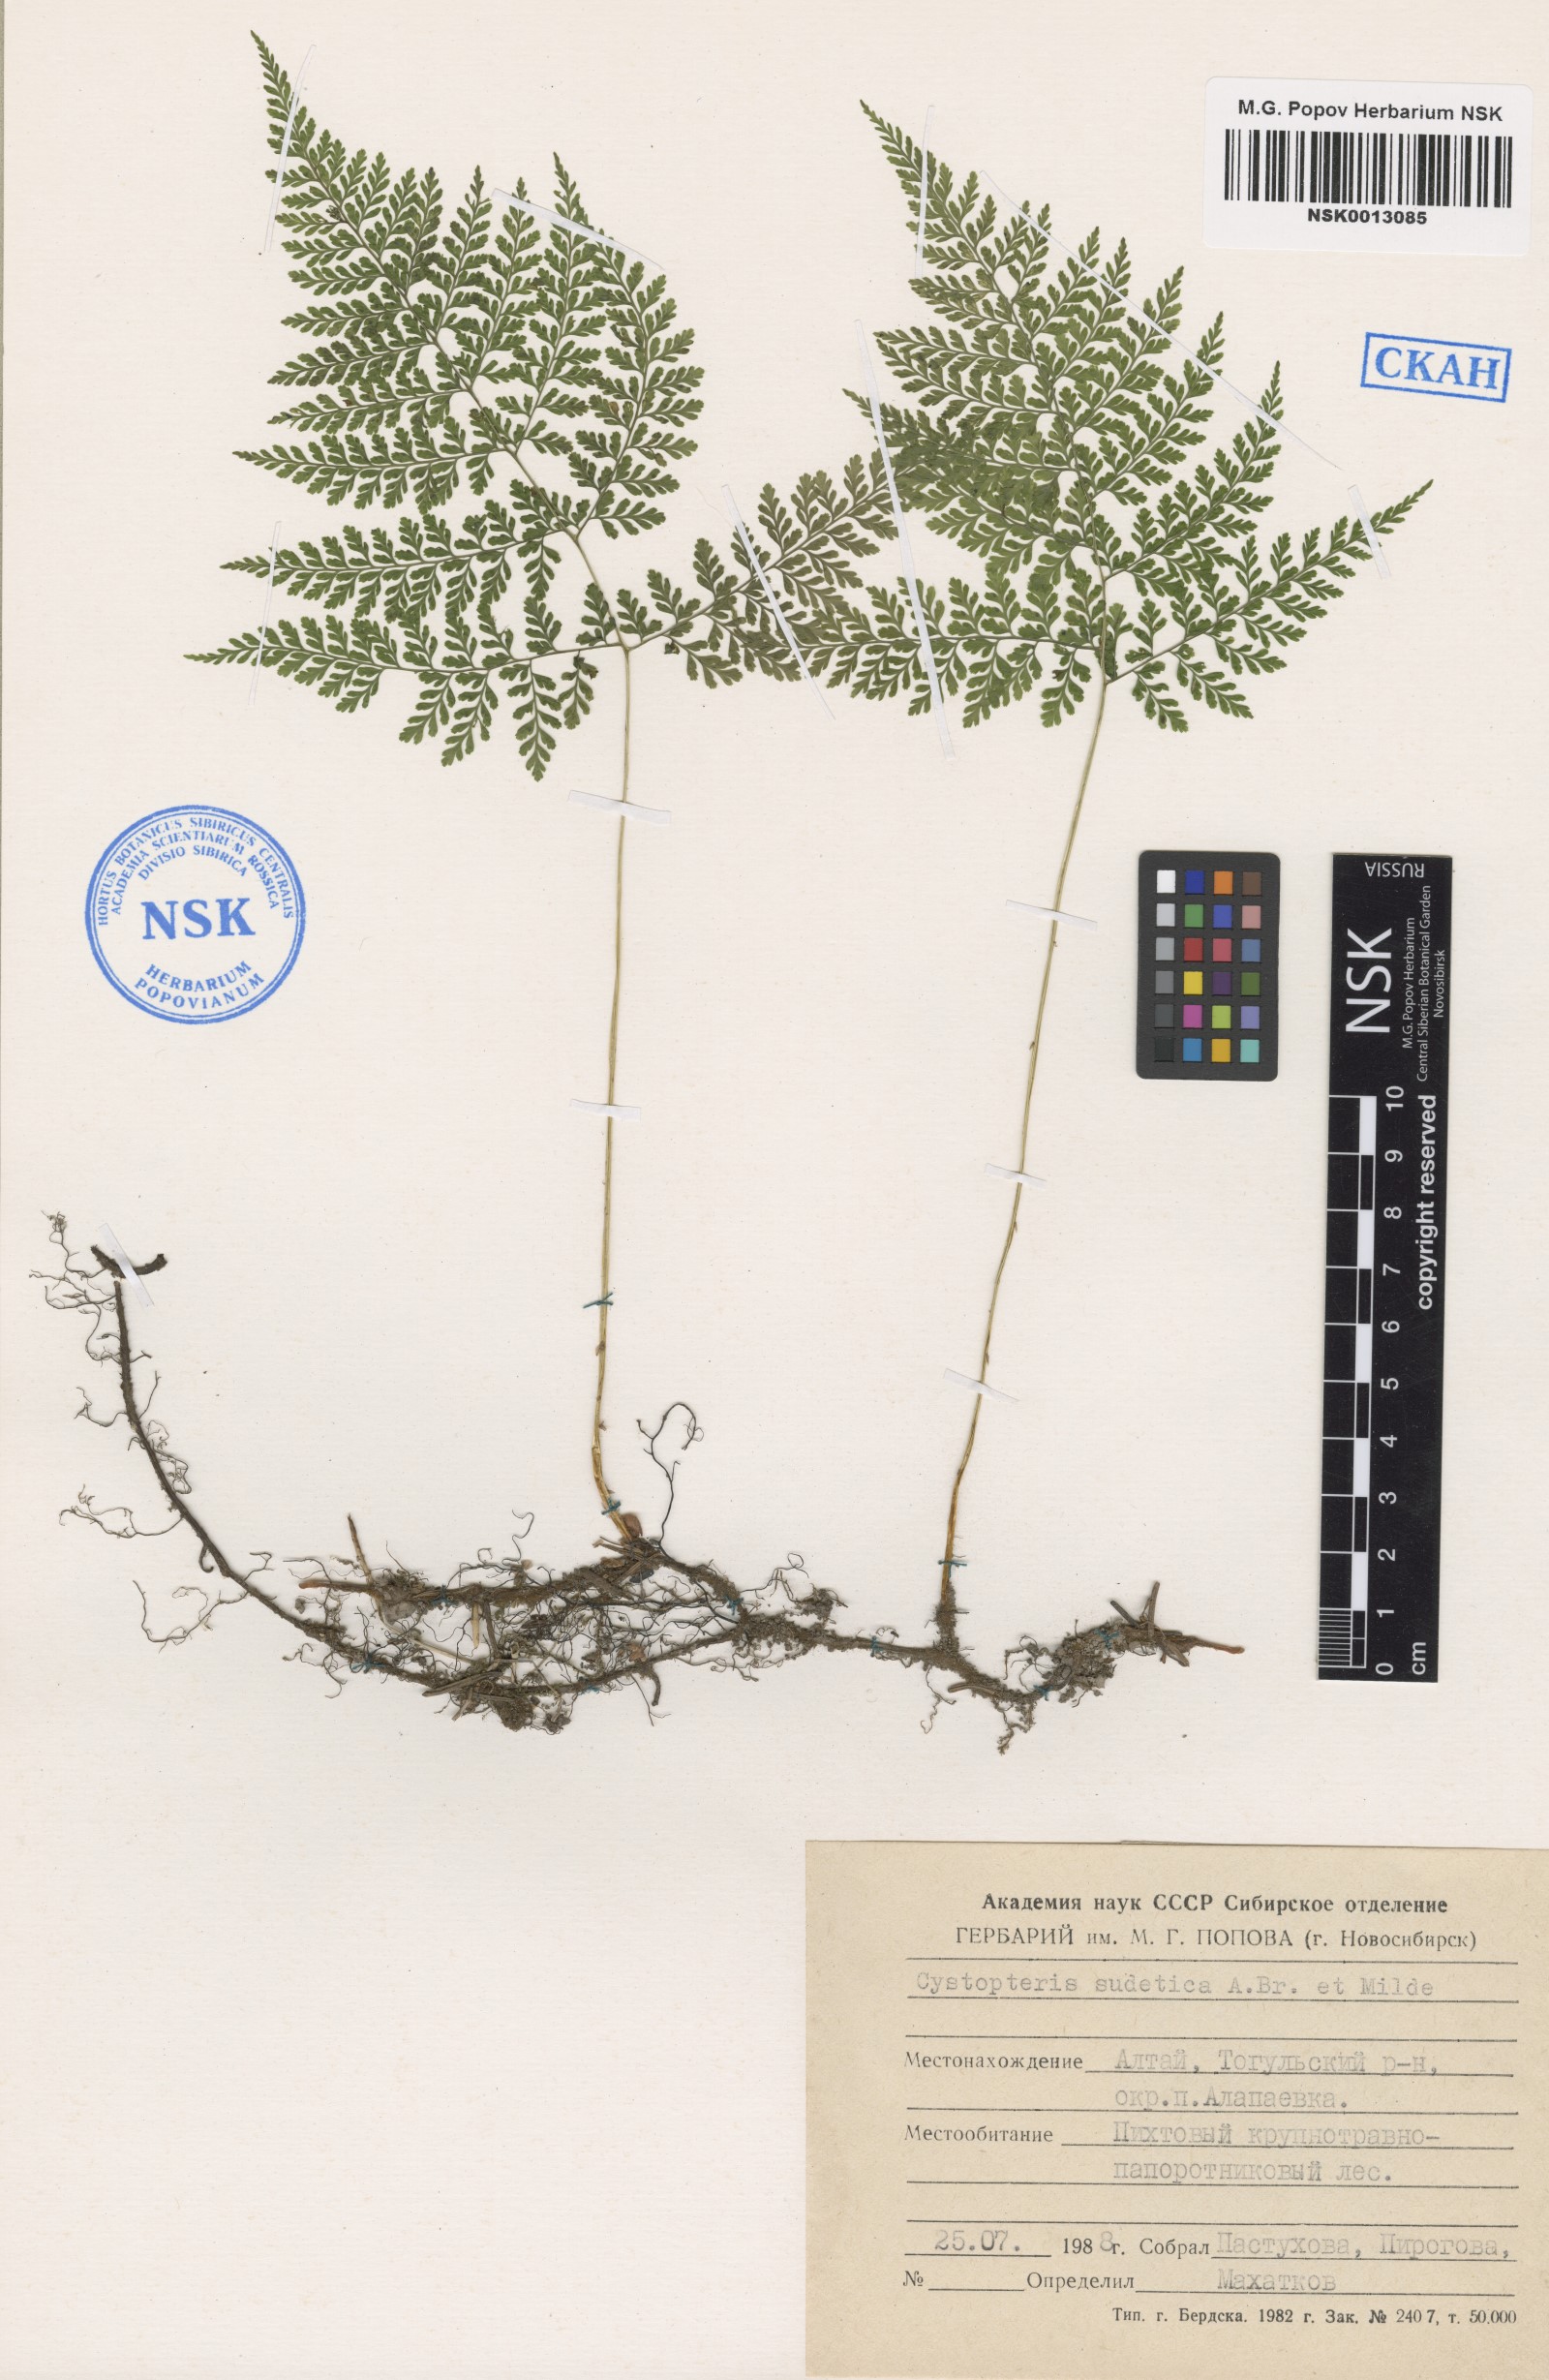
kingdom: Plantae
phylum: Tracheophyta
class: Polypodiopsida
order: Polypodiales
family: Cystopteridaceae
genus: Cystopteris
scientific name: Cystopteris sudetica
